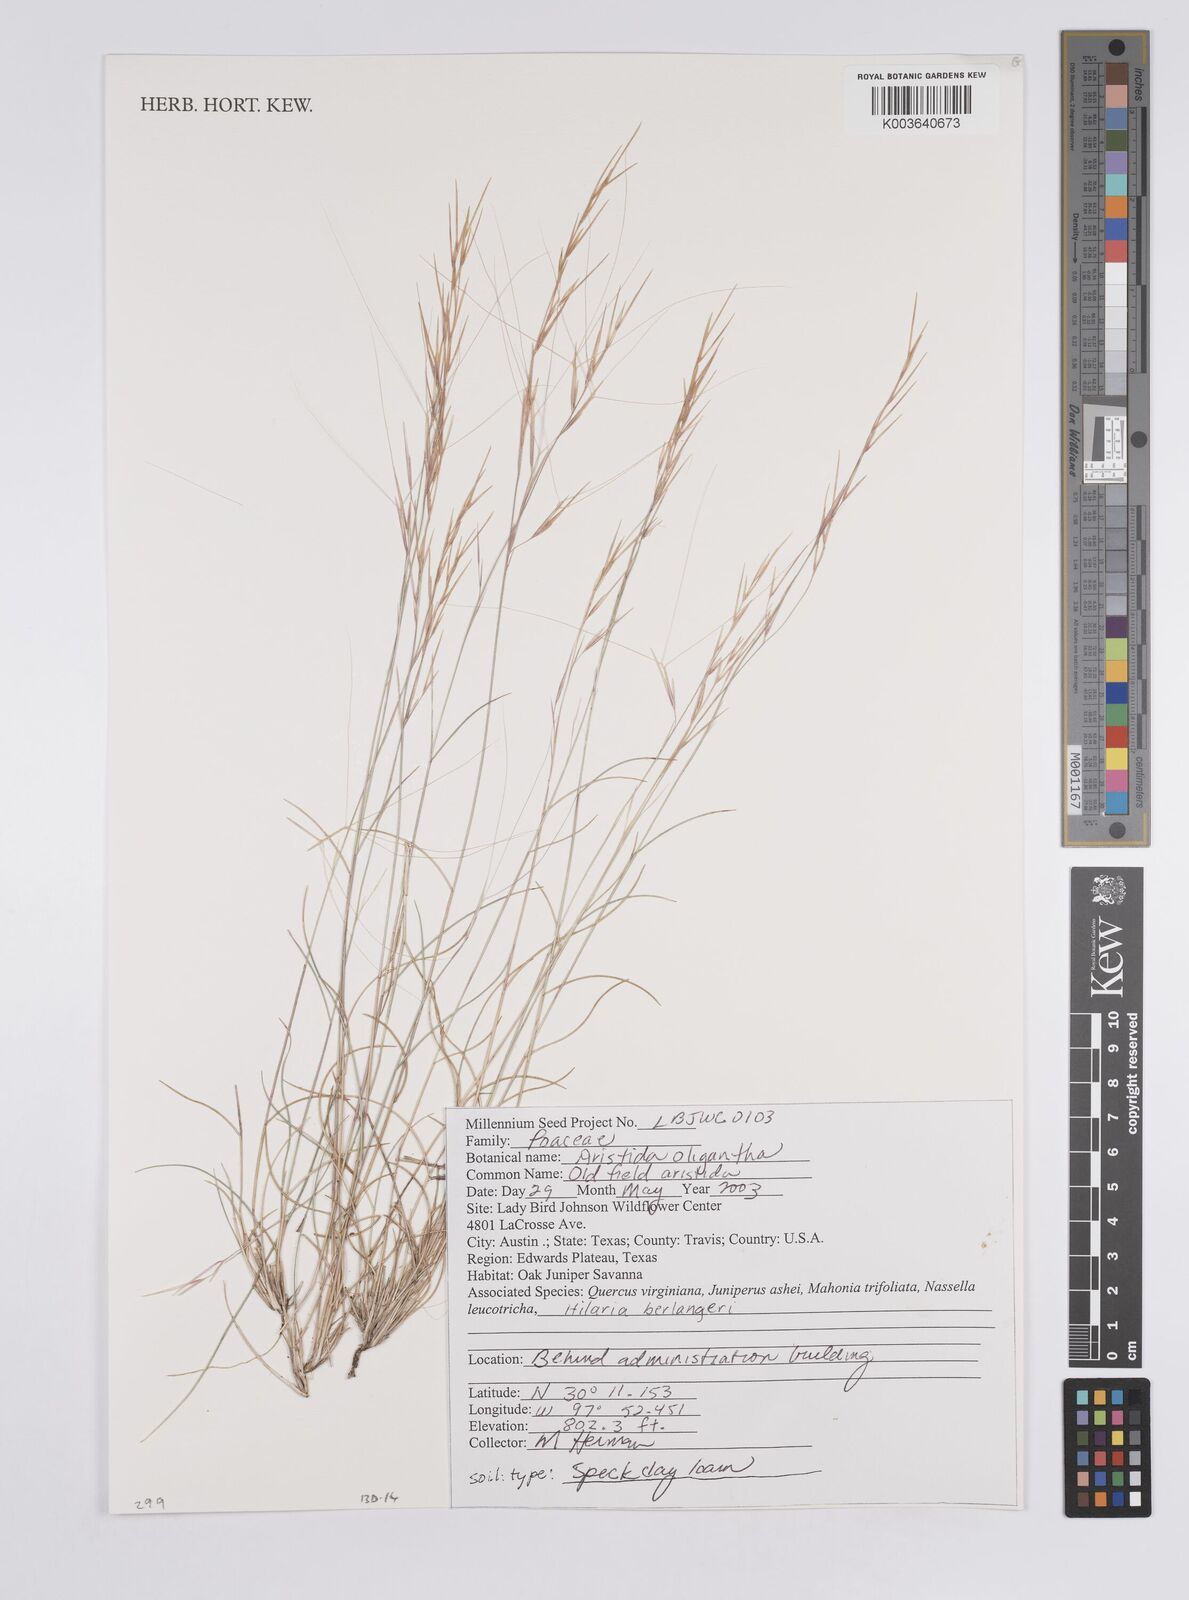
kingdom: Plantae
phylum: Tracheophyta
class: Liliopsida
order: Poales
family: Poaceae
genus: Aristida
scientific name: Aristida oligantha
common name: Few-flowered aristida
